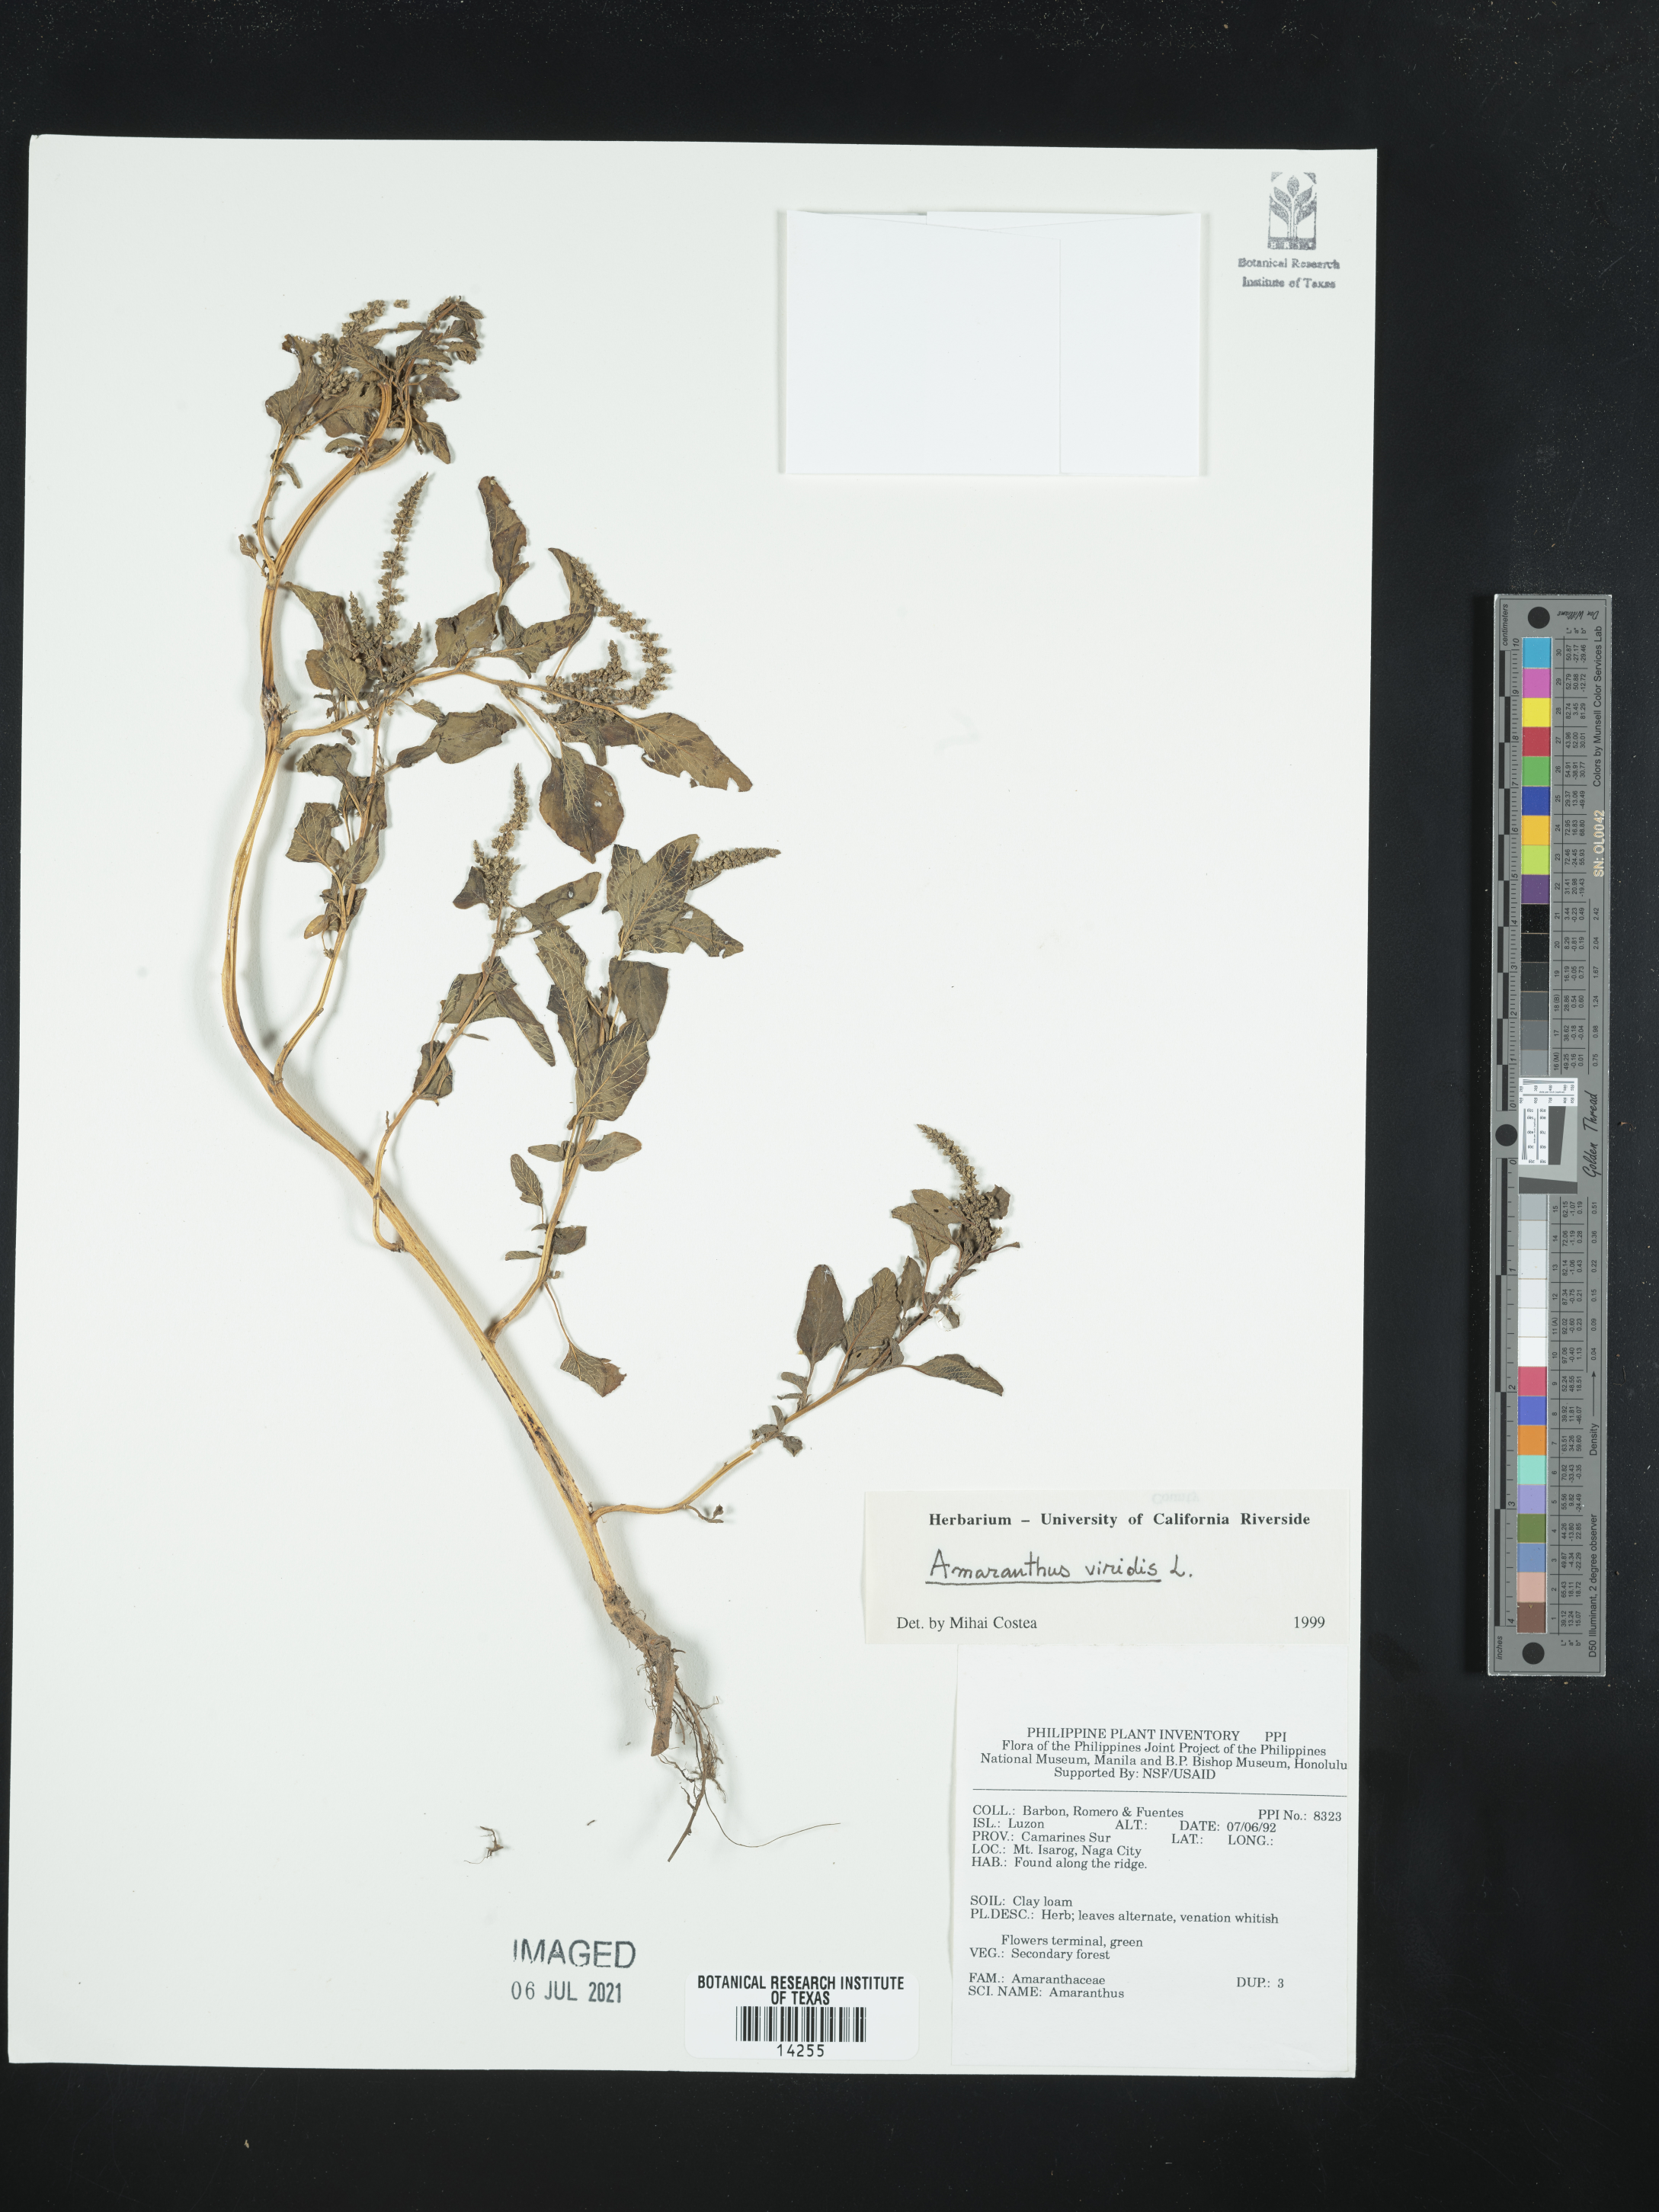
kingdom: Plantae
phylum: Tracheophyta
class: Magnoliopsida
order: Caryophyllales
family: Amaranthaceae
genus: Amaranthus
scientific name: Amaranthus viridis
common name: Slender amaranth
